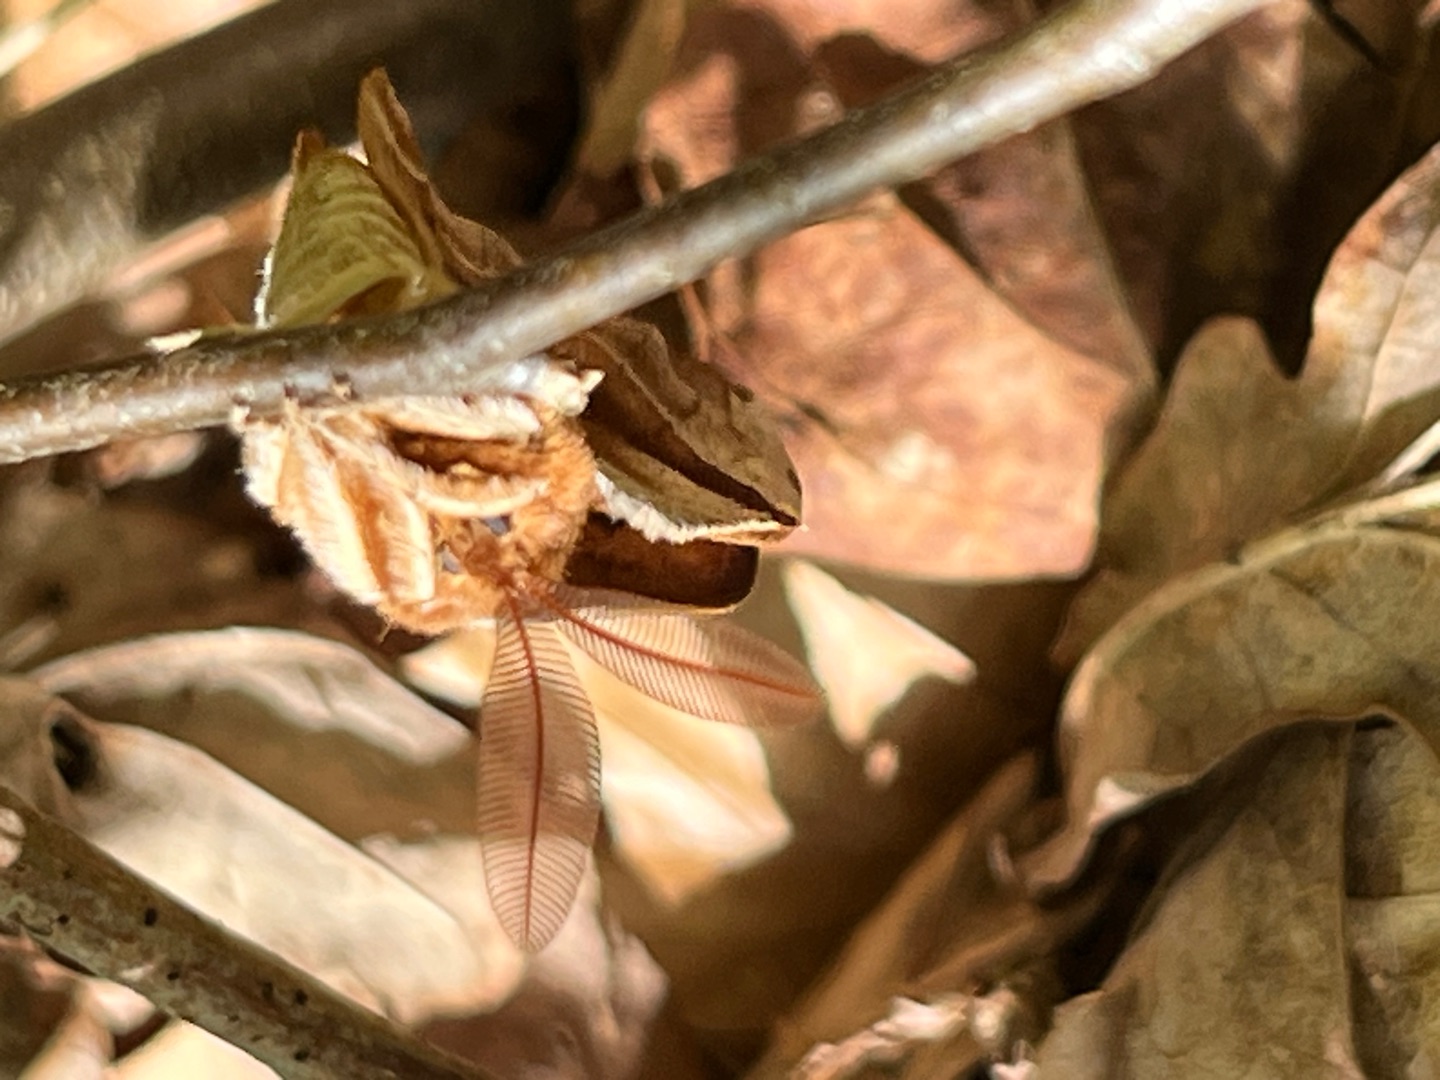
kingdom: Animalia
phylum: Arthropoda
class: Insecta
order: Lepidoptera
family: Saturniidae
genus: Aglia
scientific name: Aglia tau
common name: Sømplet
